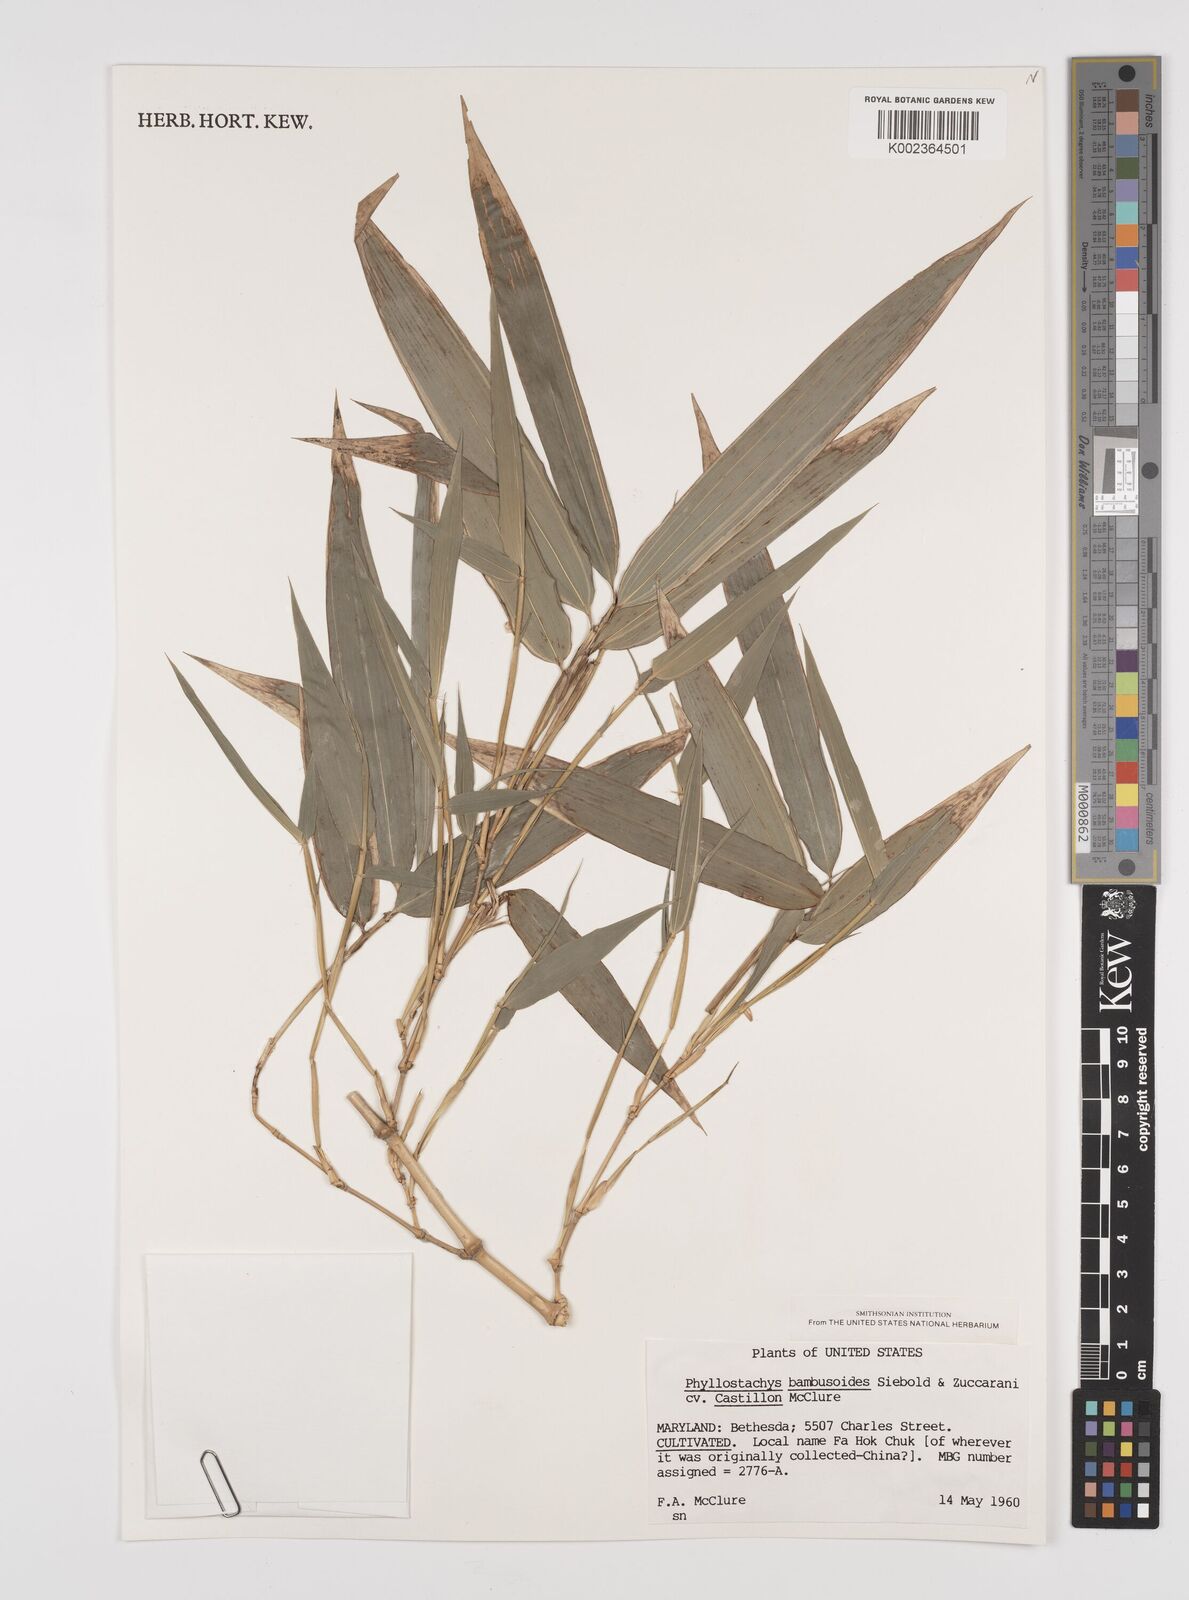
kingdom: Plantae
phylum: Tracheophyta
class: Liliopsida
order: Poales
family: Poaceae
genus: Phyllostachys
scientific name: Phyllostachys reticulata
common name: Bamboo
